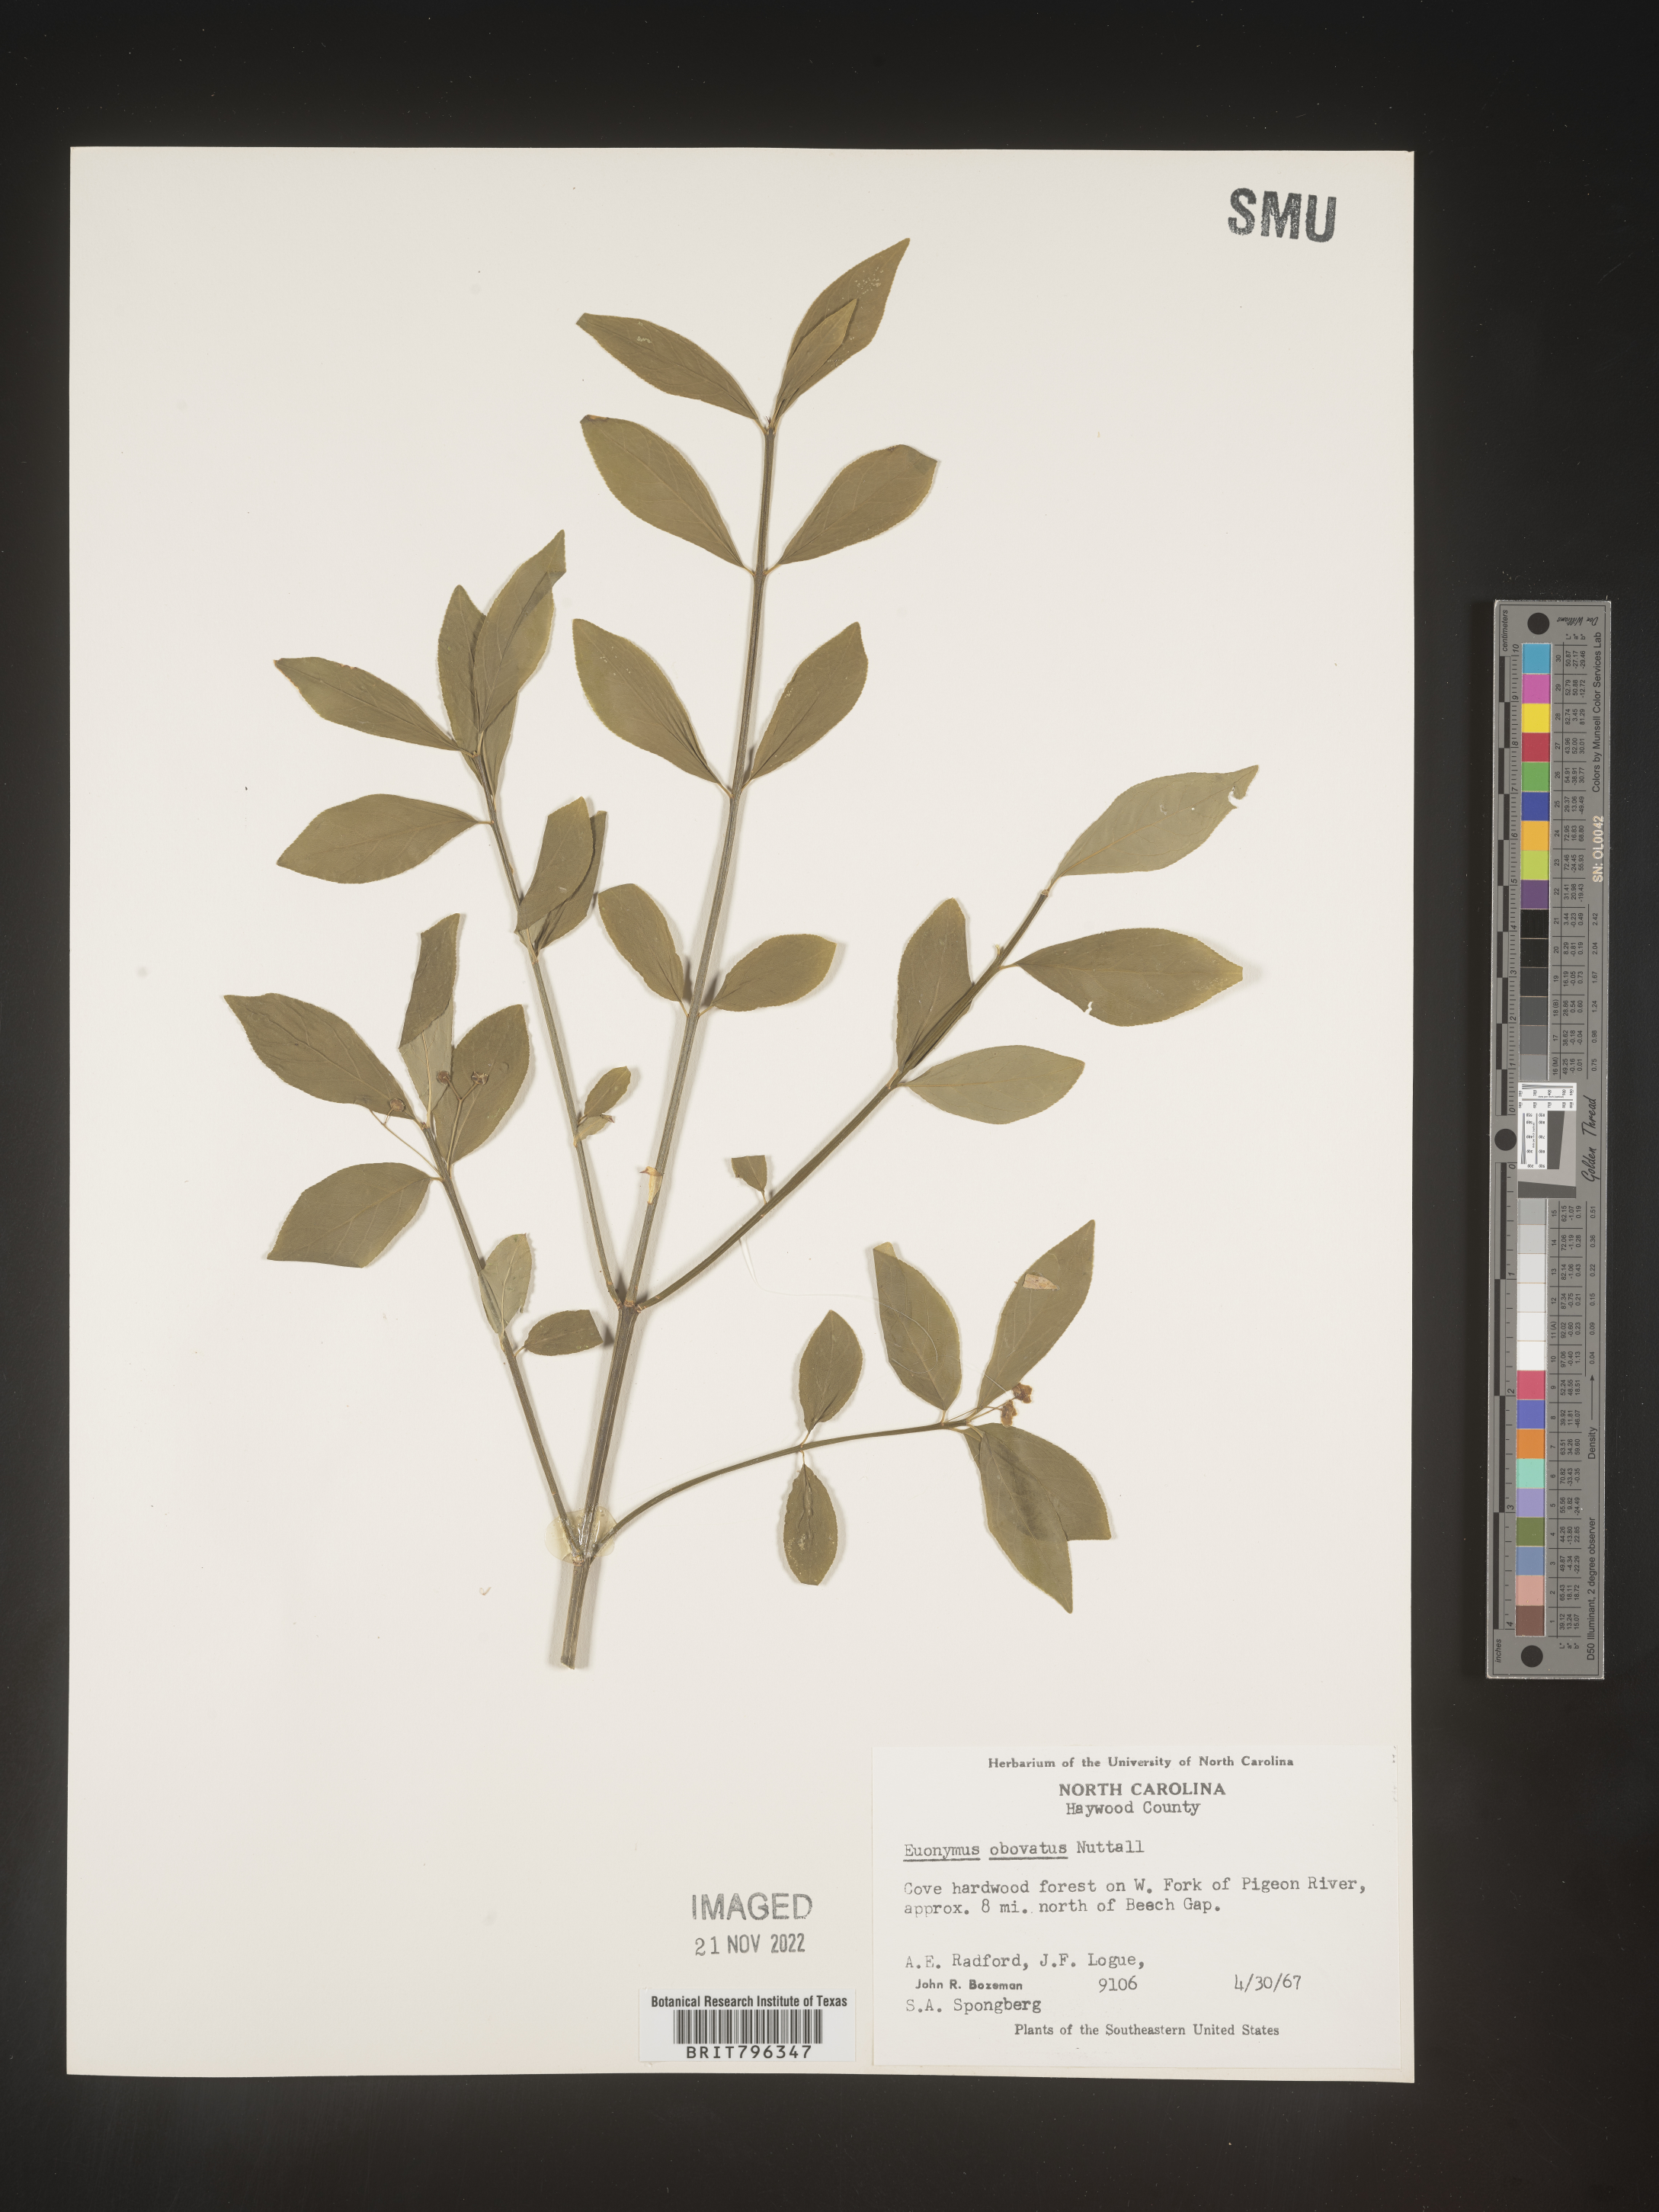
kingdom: Plantae
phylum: Tracheophyta
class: Magnoliopsida
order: Celastrales
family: Celastraceae
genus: Euonymus
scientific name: Euonymus obovatus
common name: Running strawberry-bush
